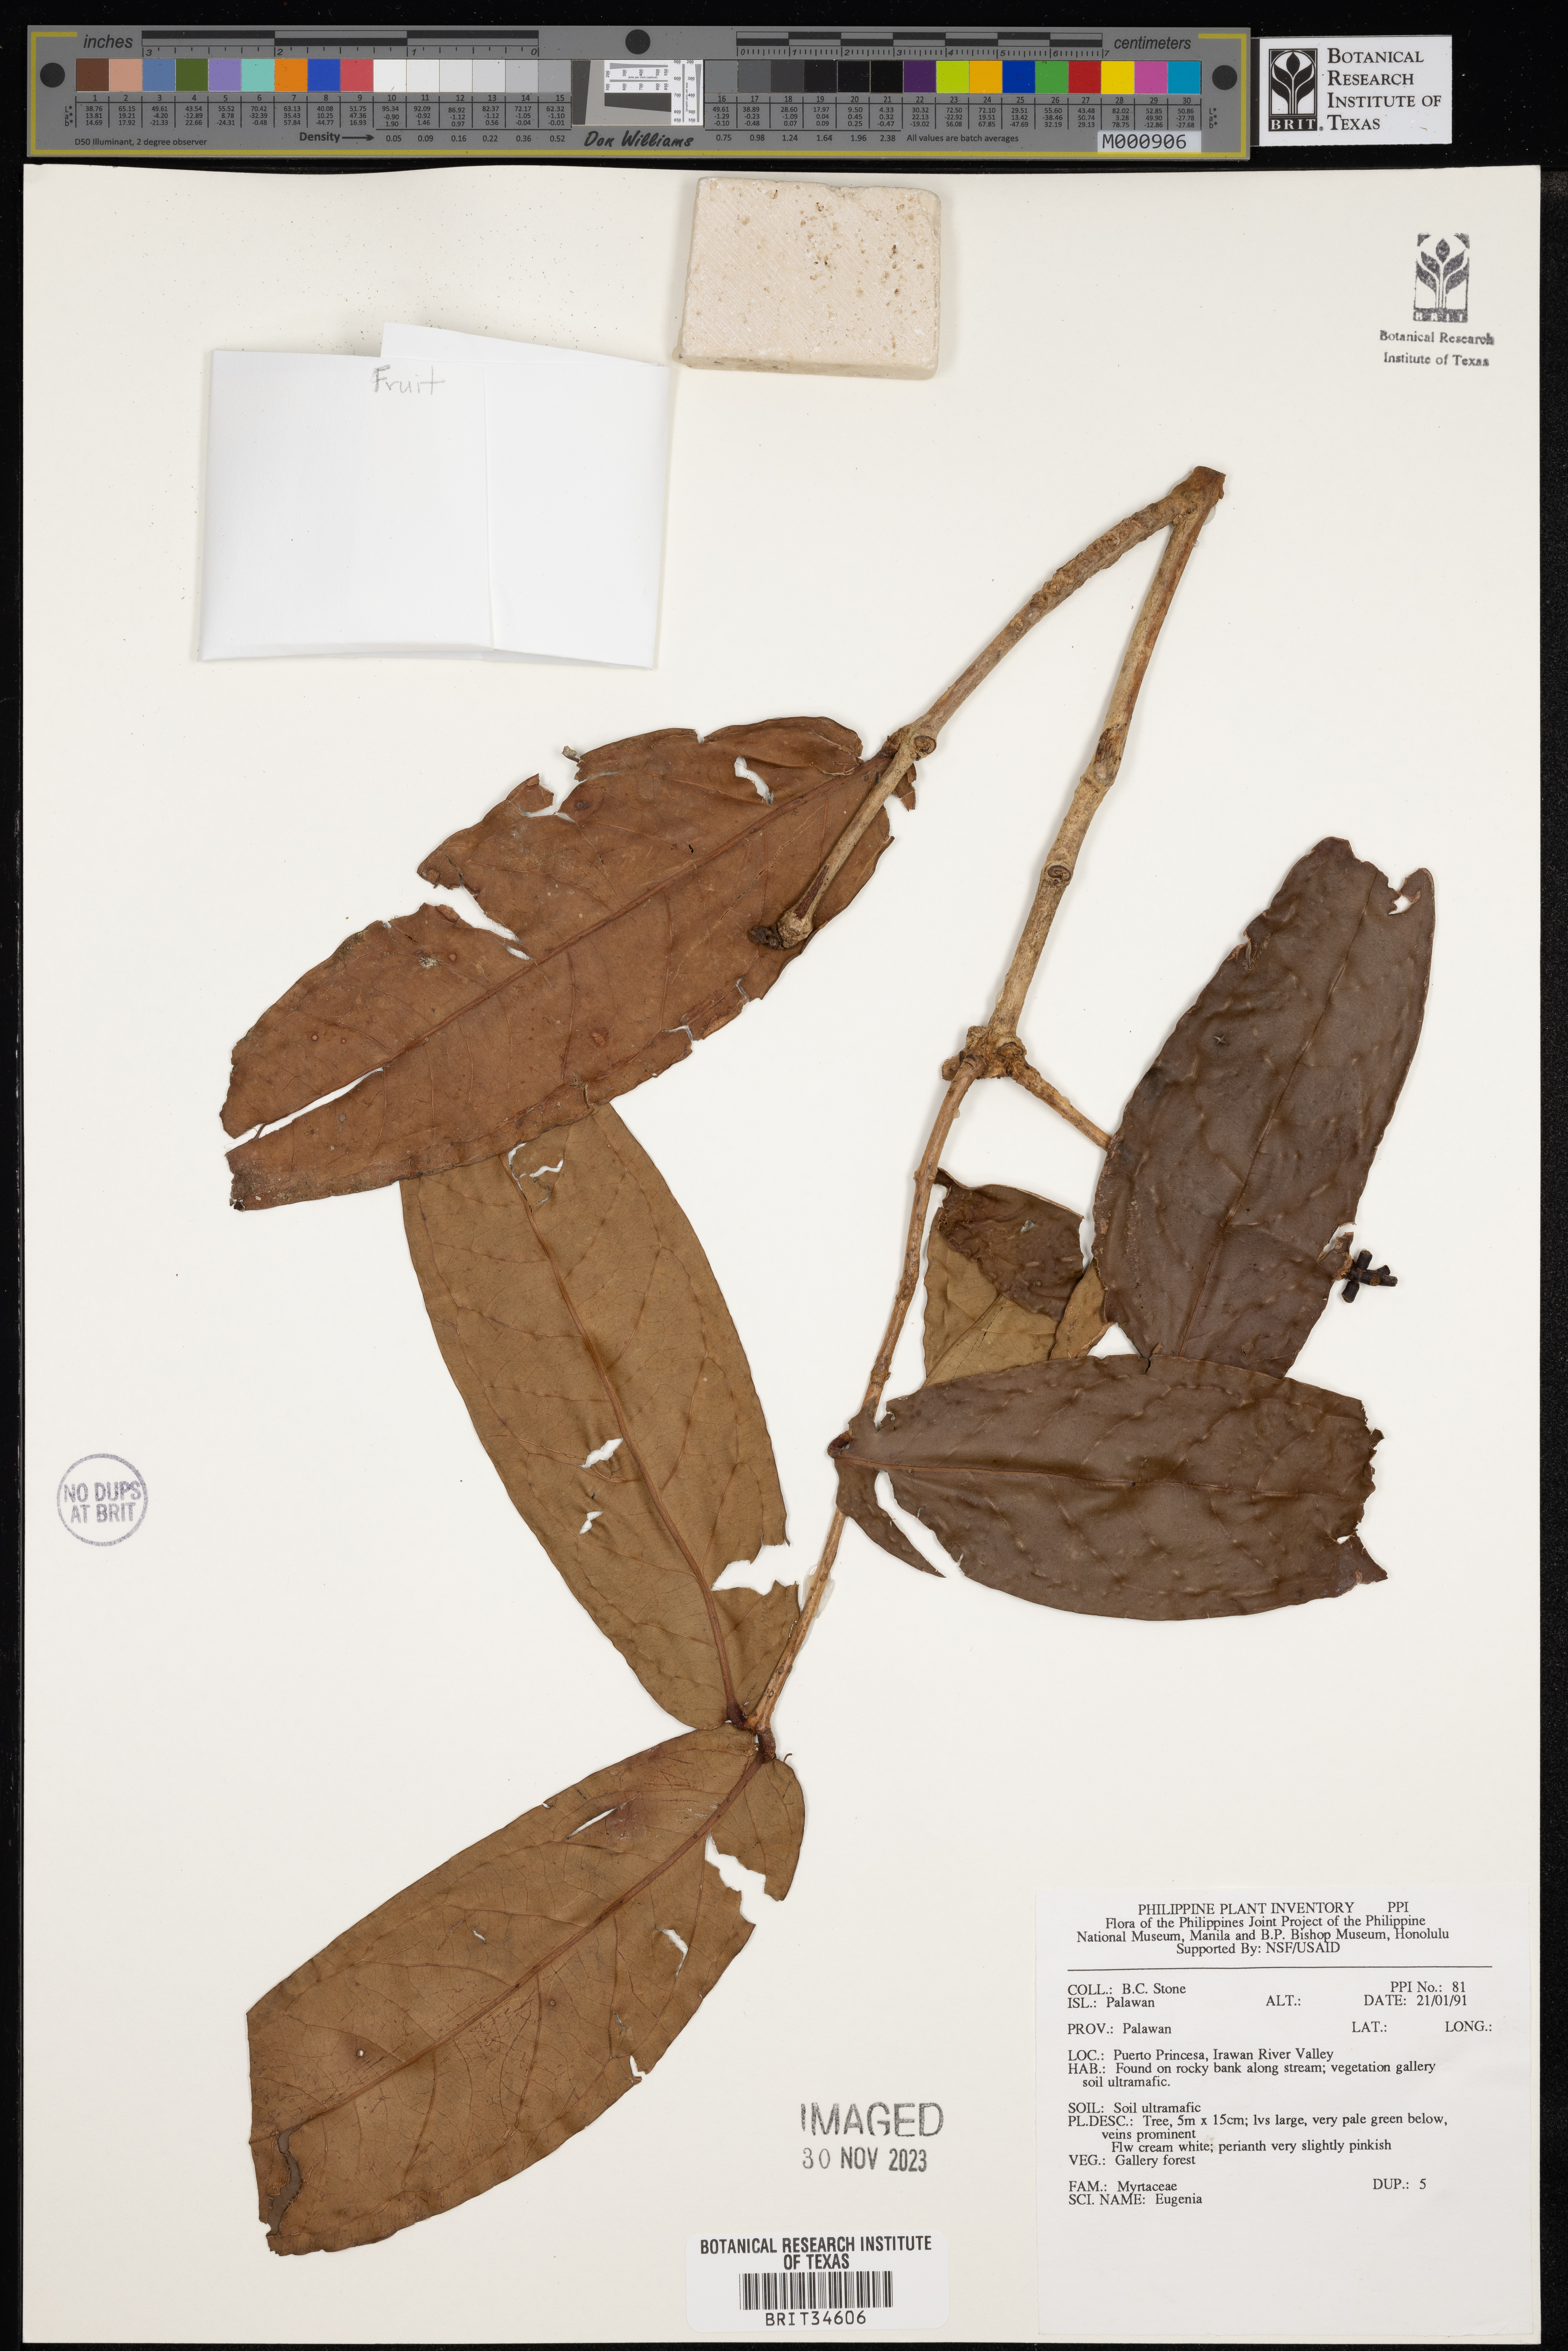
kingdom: Plantae
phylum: Tracheophyta
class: Magnoliopsida
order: Myrtales
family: Myrtaceae
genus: Eugenia
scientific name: Eugenia
